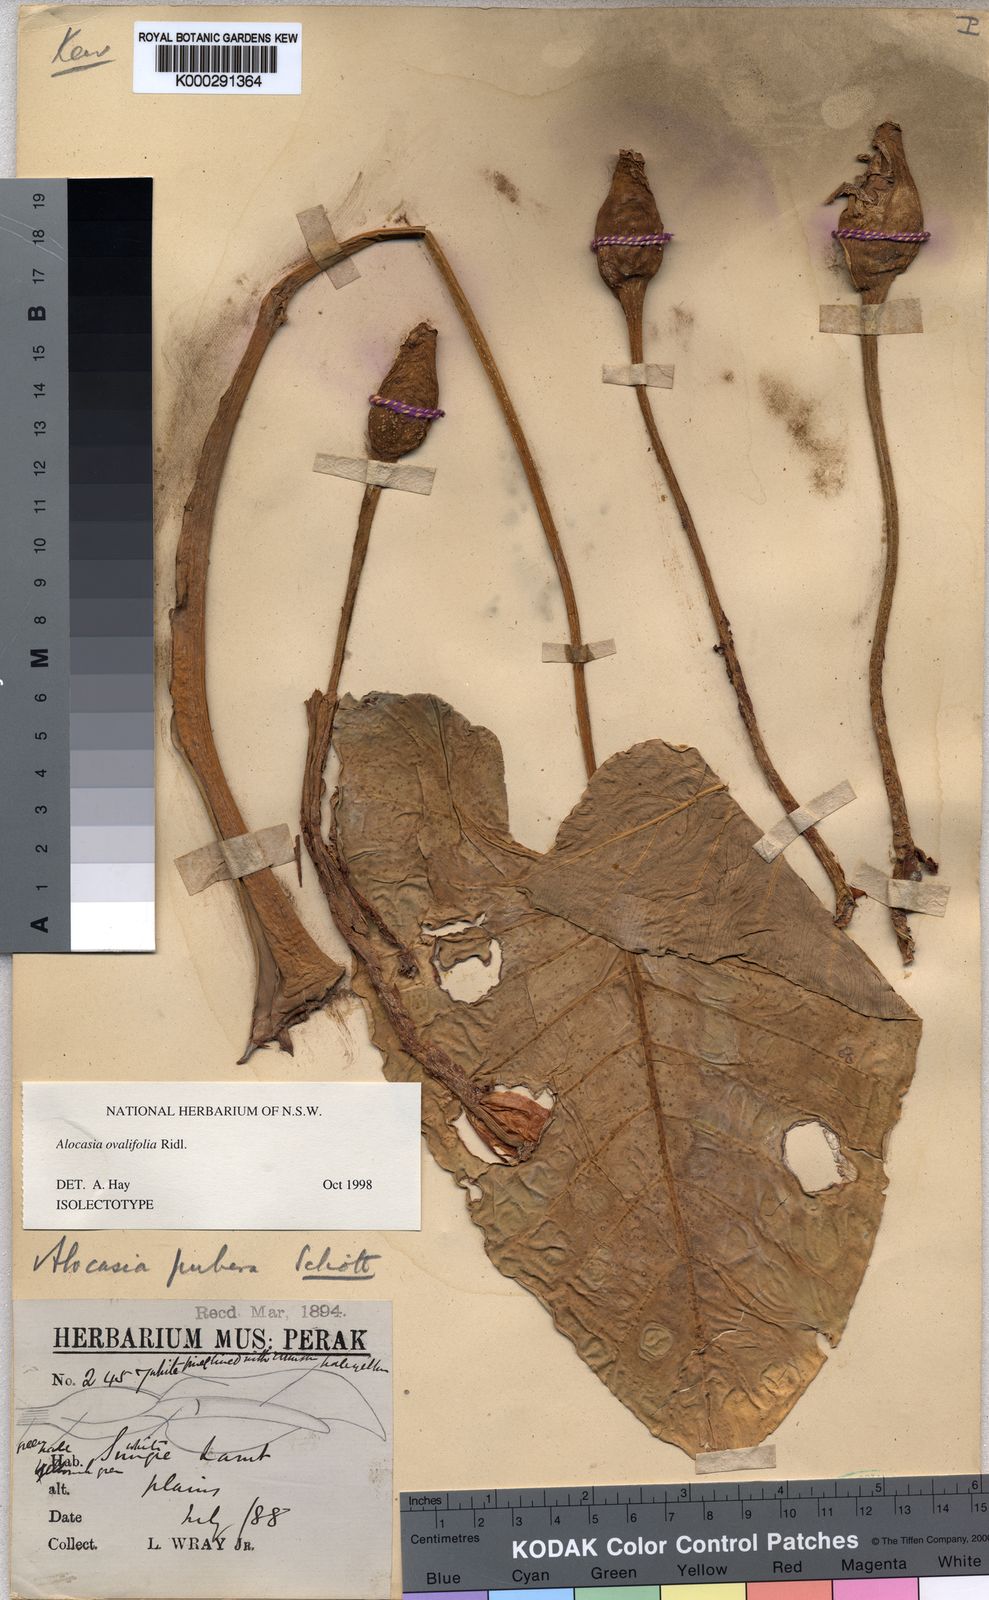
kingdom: Plantae
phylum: Tracheophyta
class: Liliopsida
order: Alismatales
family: Araceae
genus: Alocasia
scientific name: Alocasia
